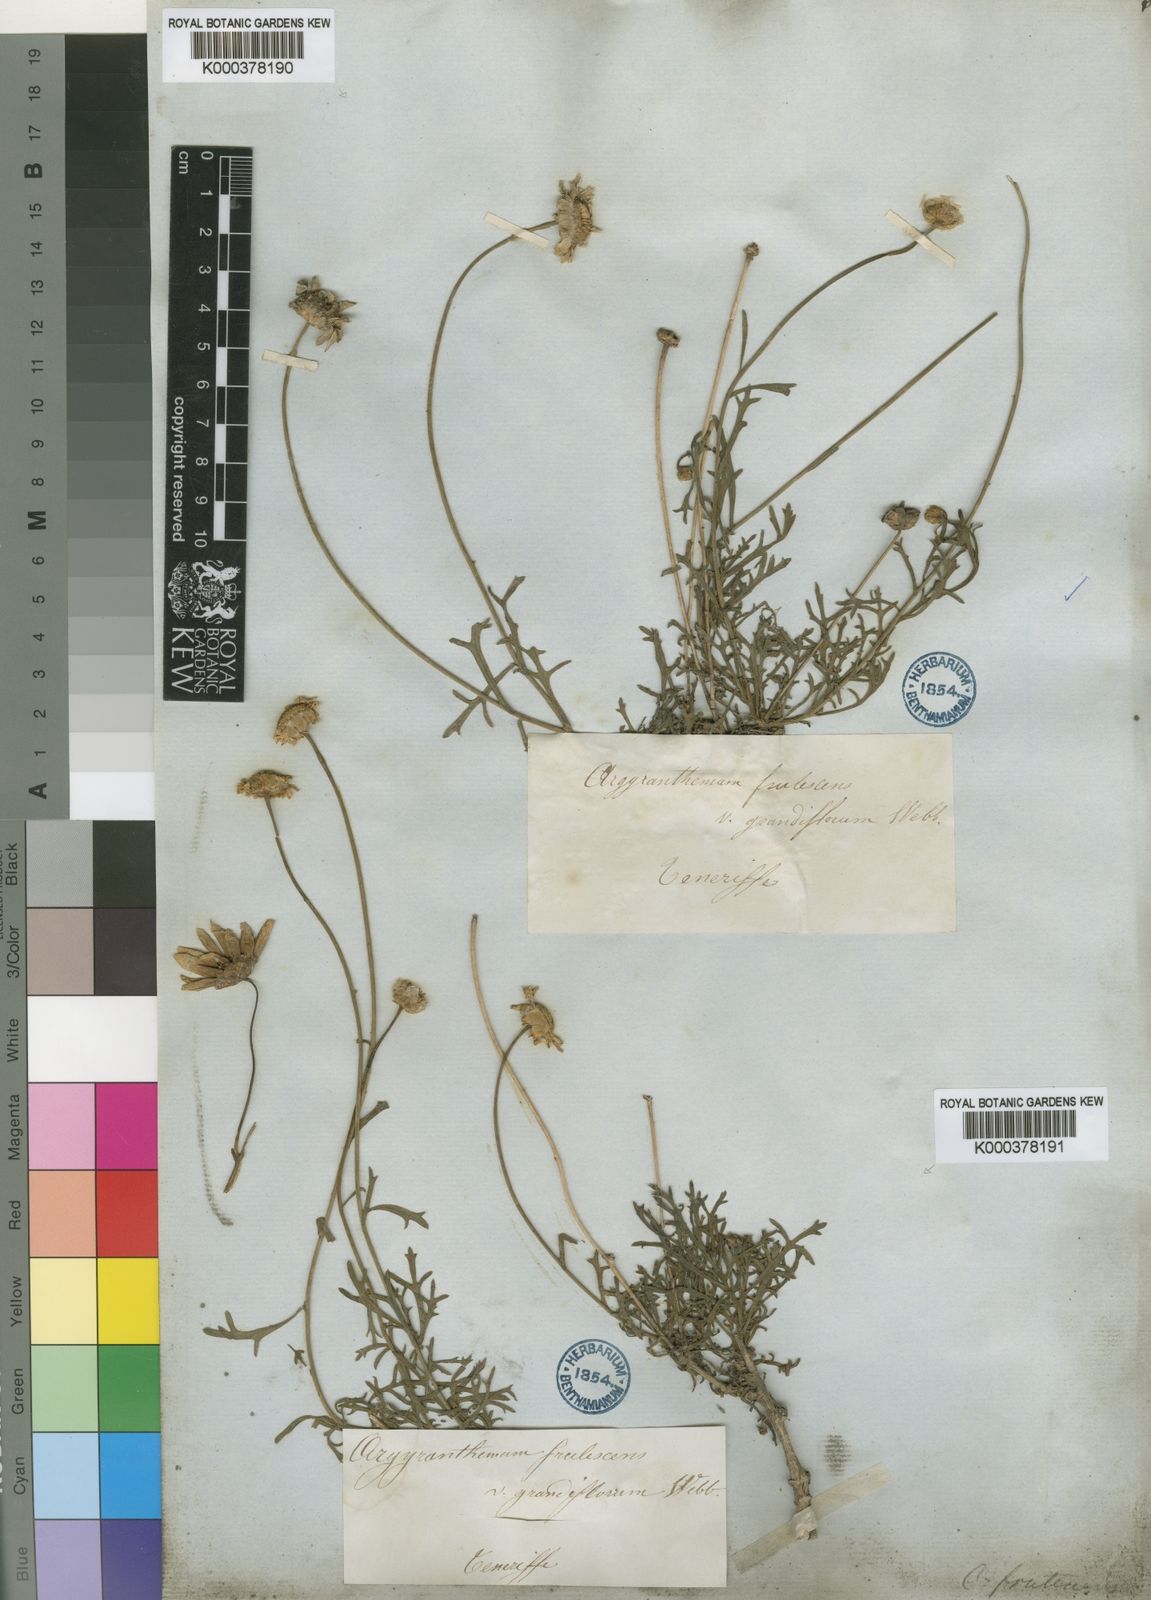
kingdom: Plantae
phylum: Tracheophyta
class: Magnoliopsida
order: Asterales
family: Asteraceae
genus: Argyranthemum
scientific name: Argyranthemum frutescens
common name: Paris daisy
